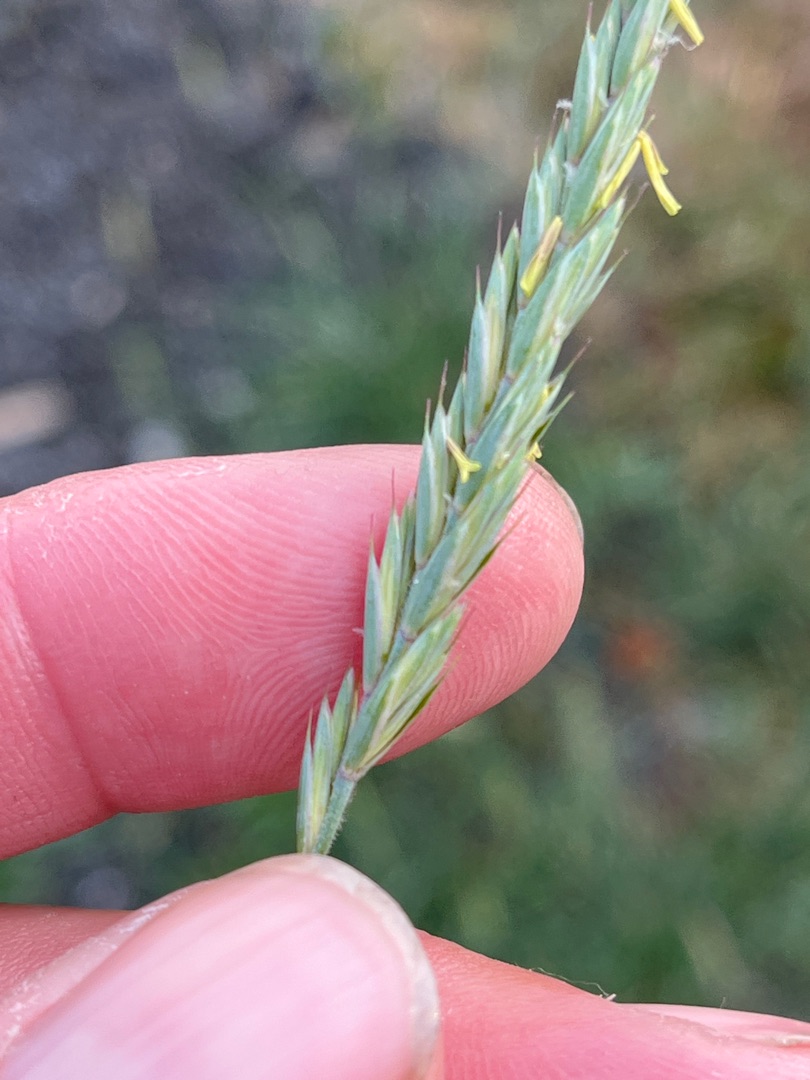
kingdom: Plantae
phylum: Tracheophyta
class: Liliopsida
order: Poales
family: Poaceae
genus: Elymus
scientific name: Elymus repens
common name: Almindelig kvik
